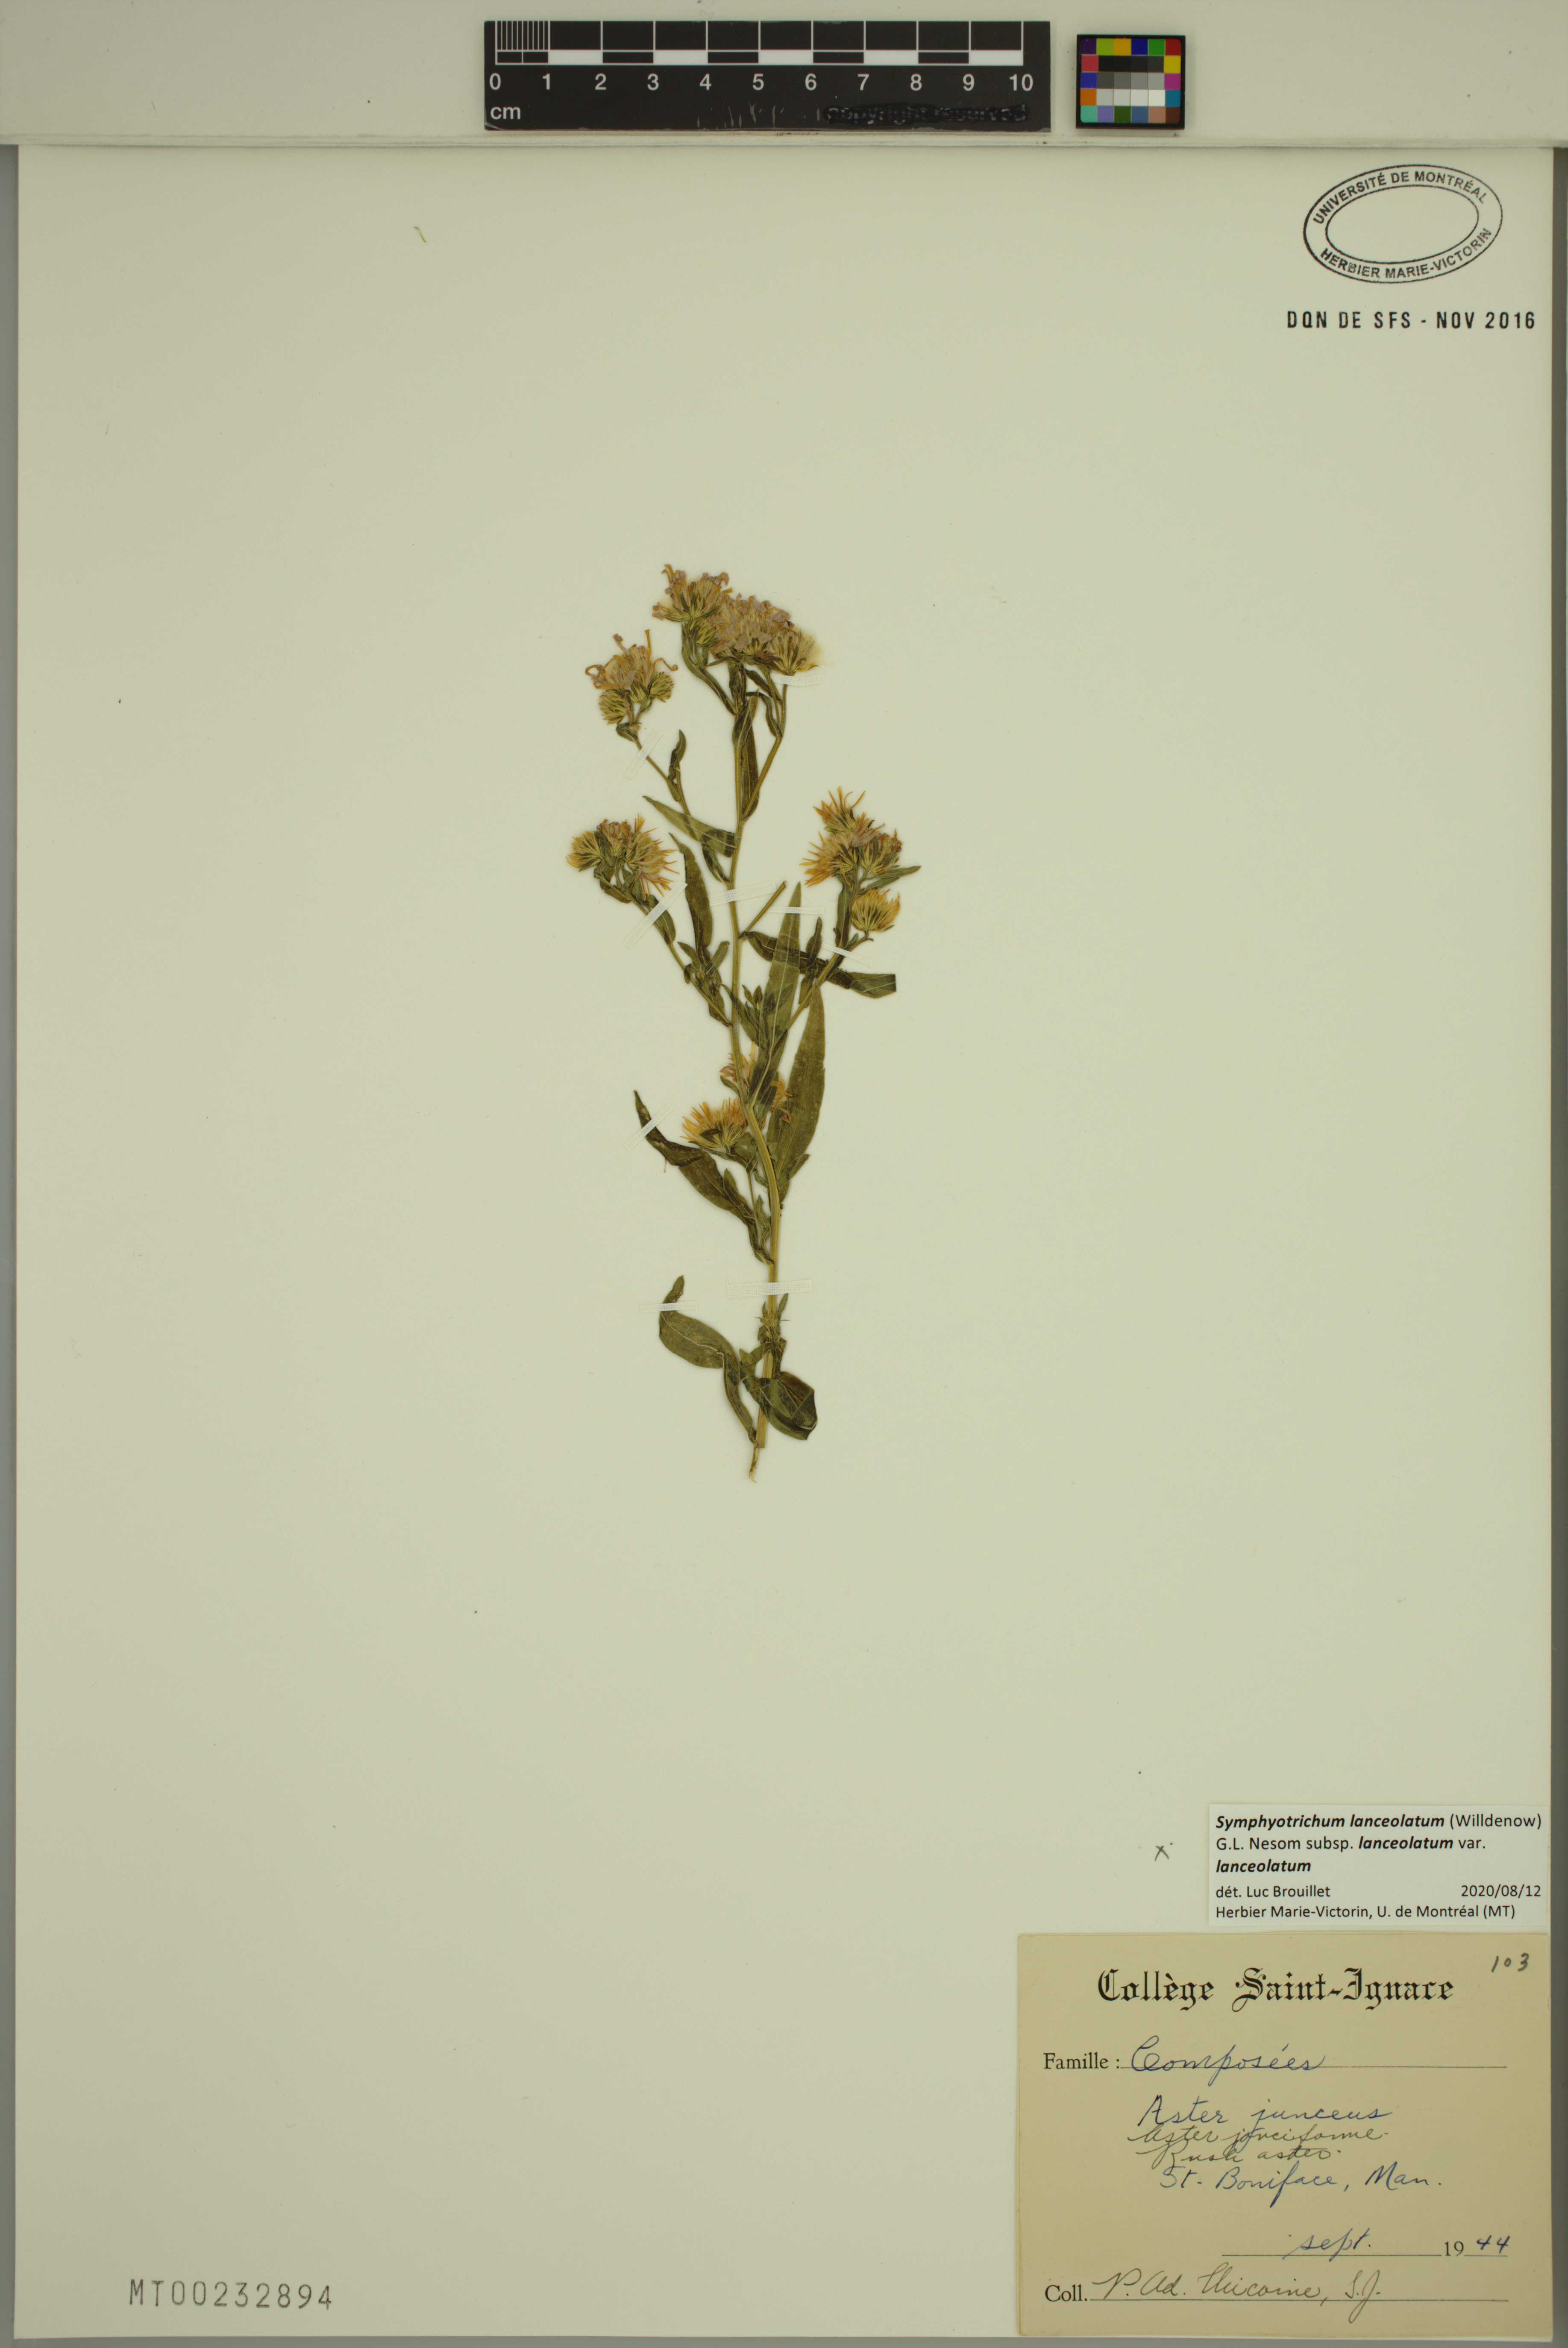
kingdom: Plantae
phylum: Tracheophyta
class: Magnoliopsida
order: Asterales
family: Asteraceae
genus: Symphyotrichum
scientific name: Symphyotrichum lanceolatum
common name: Panicled aster
